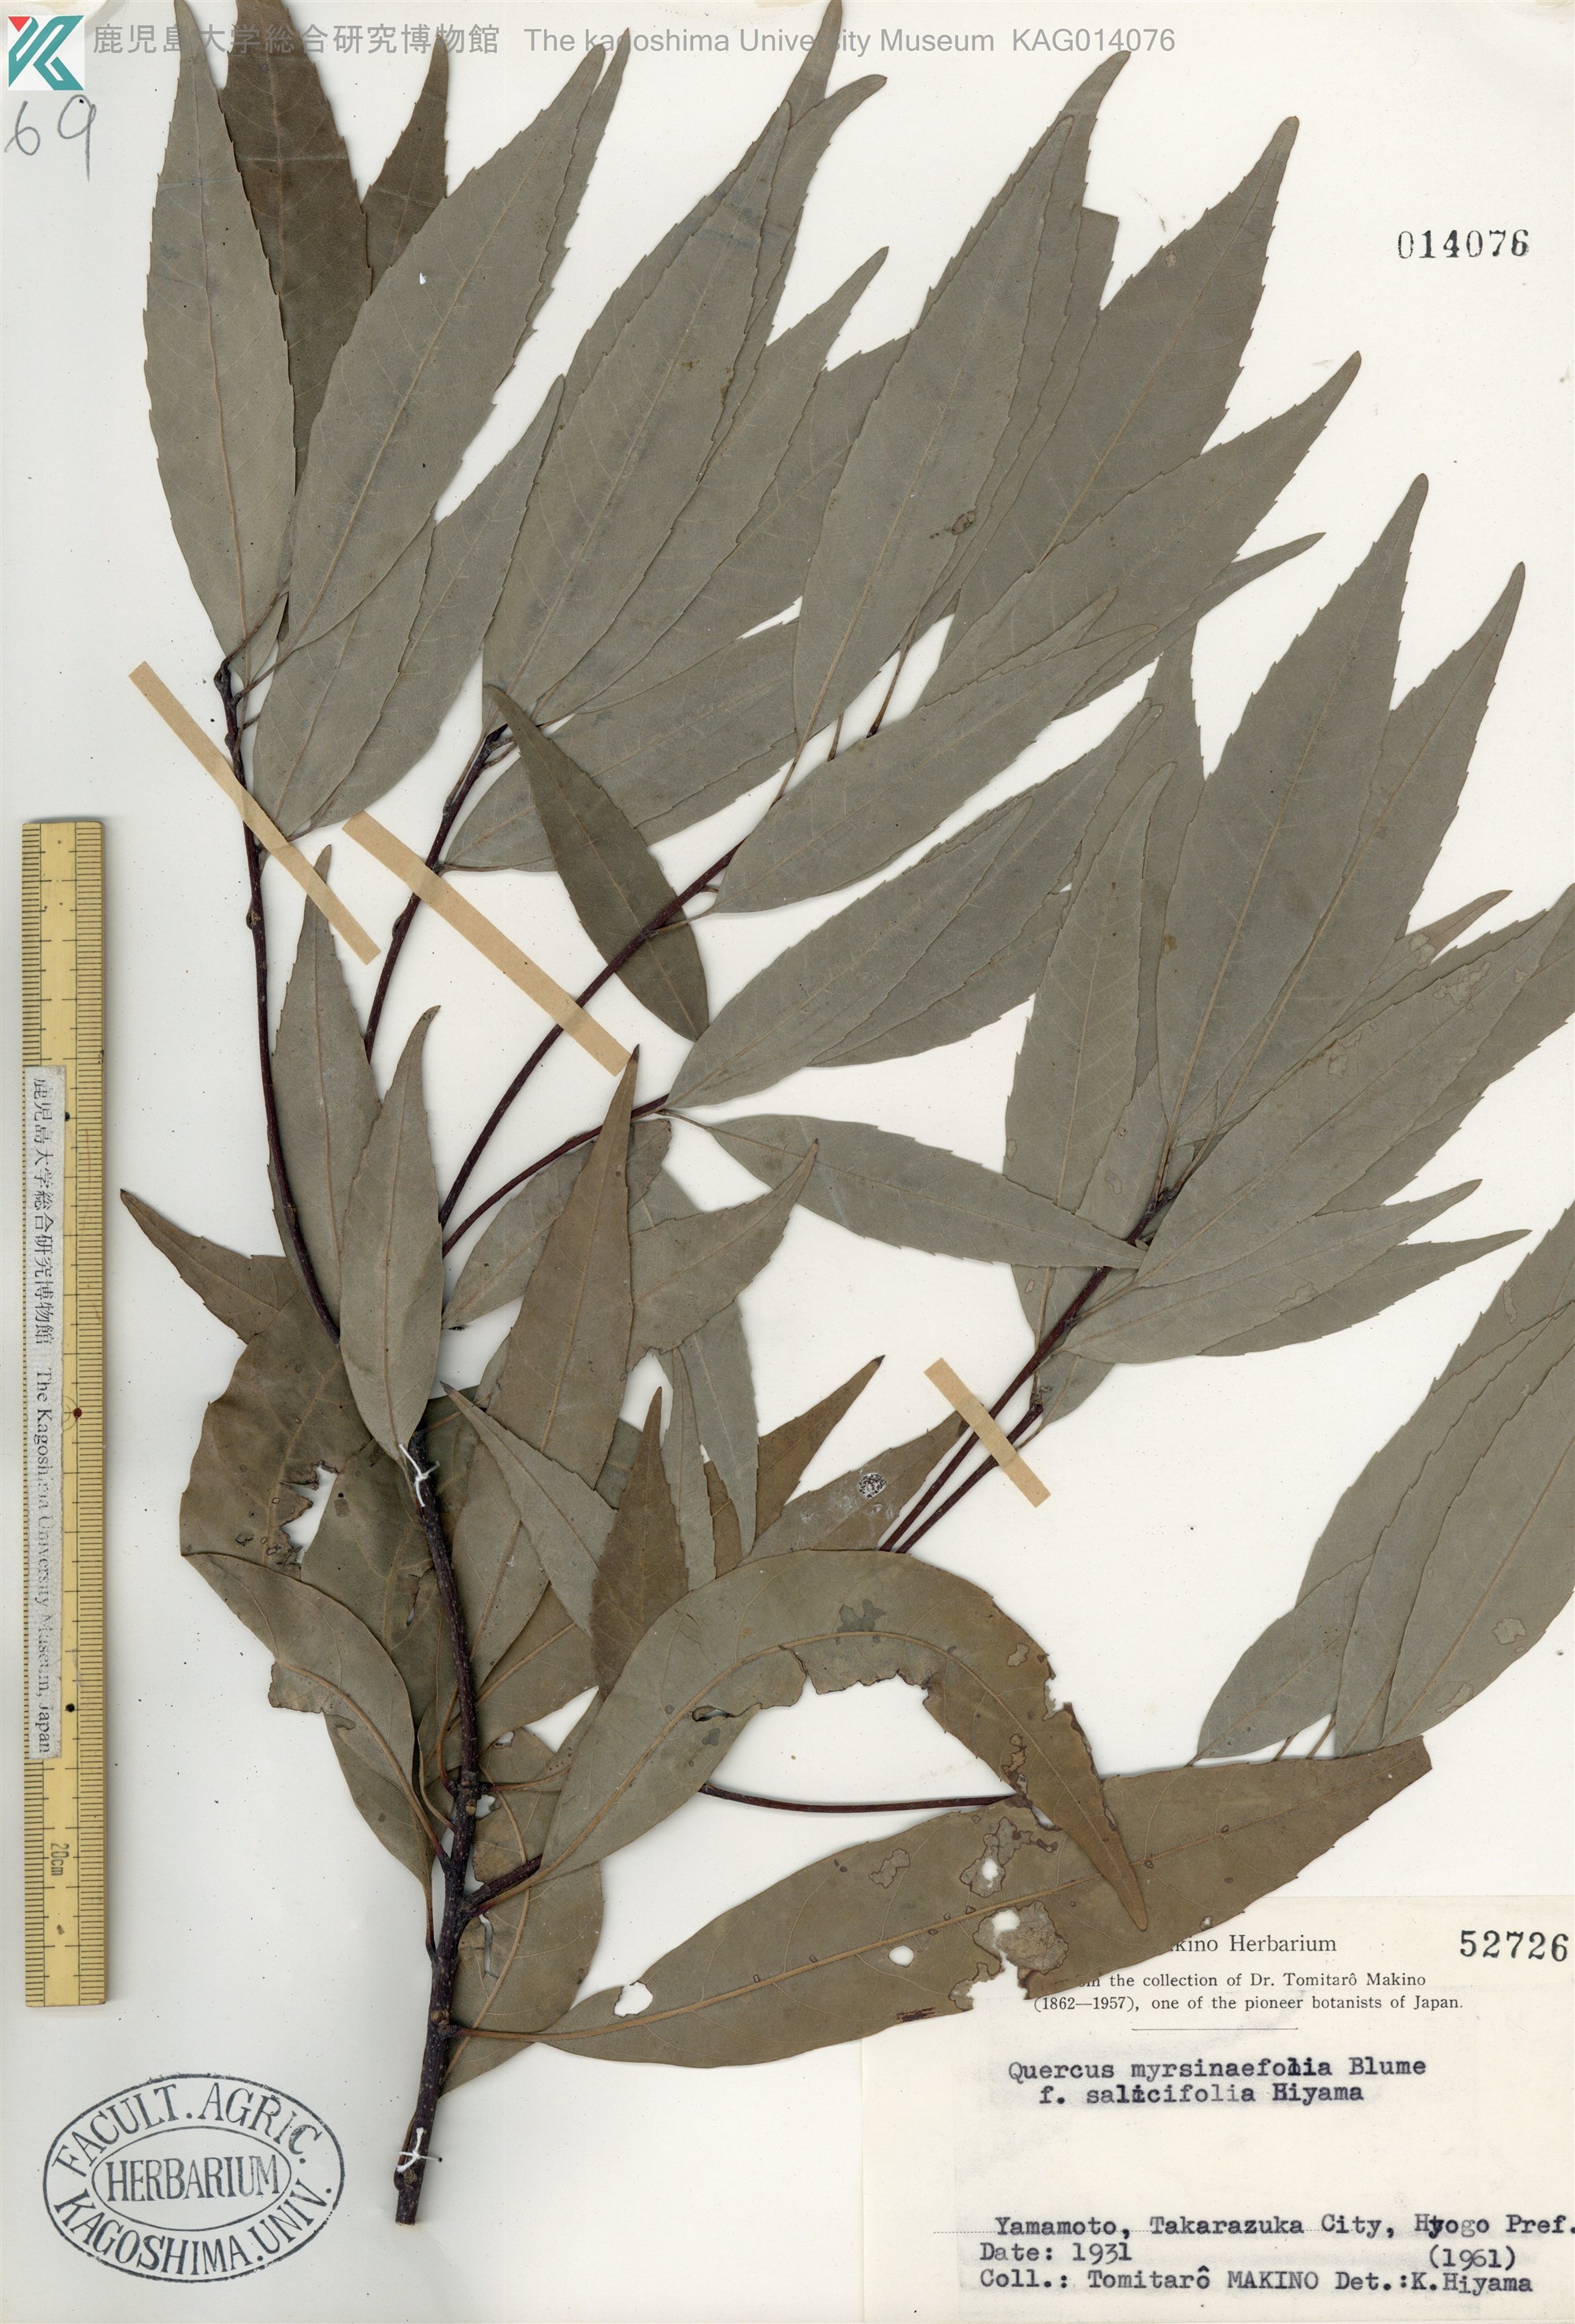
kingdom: Plantae
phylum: Tracheophyta
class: Magnoliopsida
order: Fagales
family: Fagaceae
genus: Quercus
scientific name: Quercus myrsinaefolia
